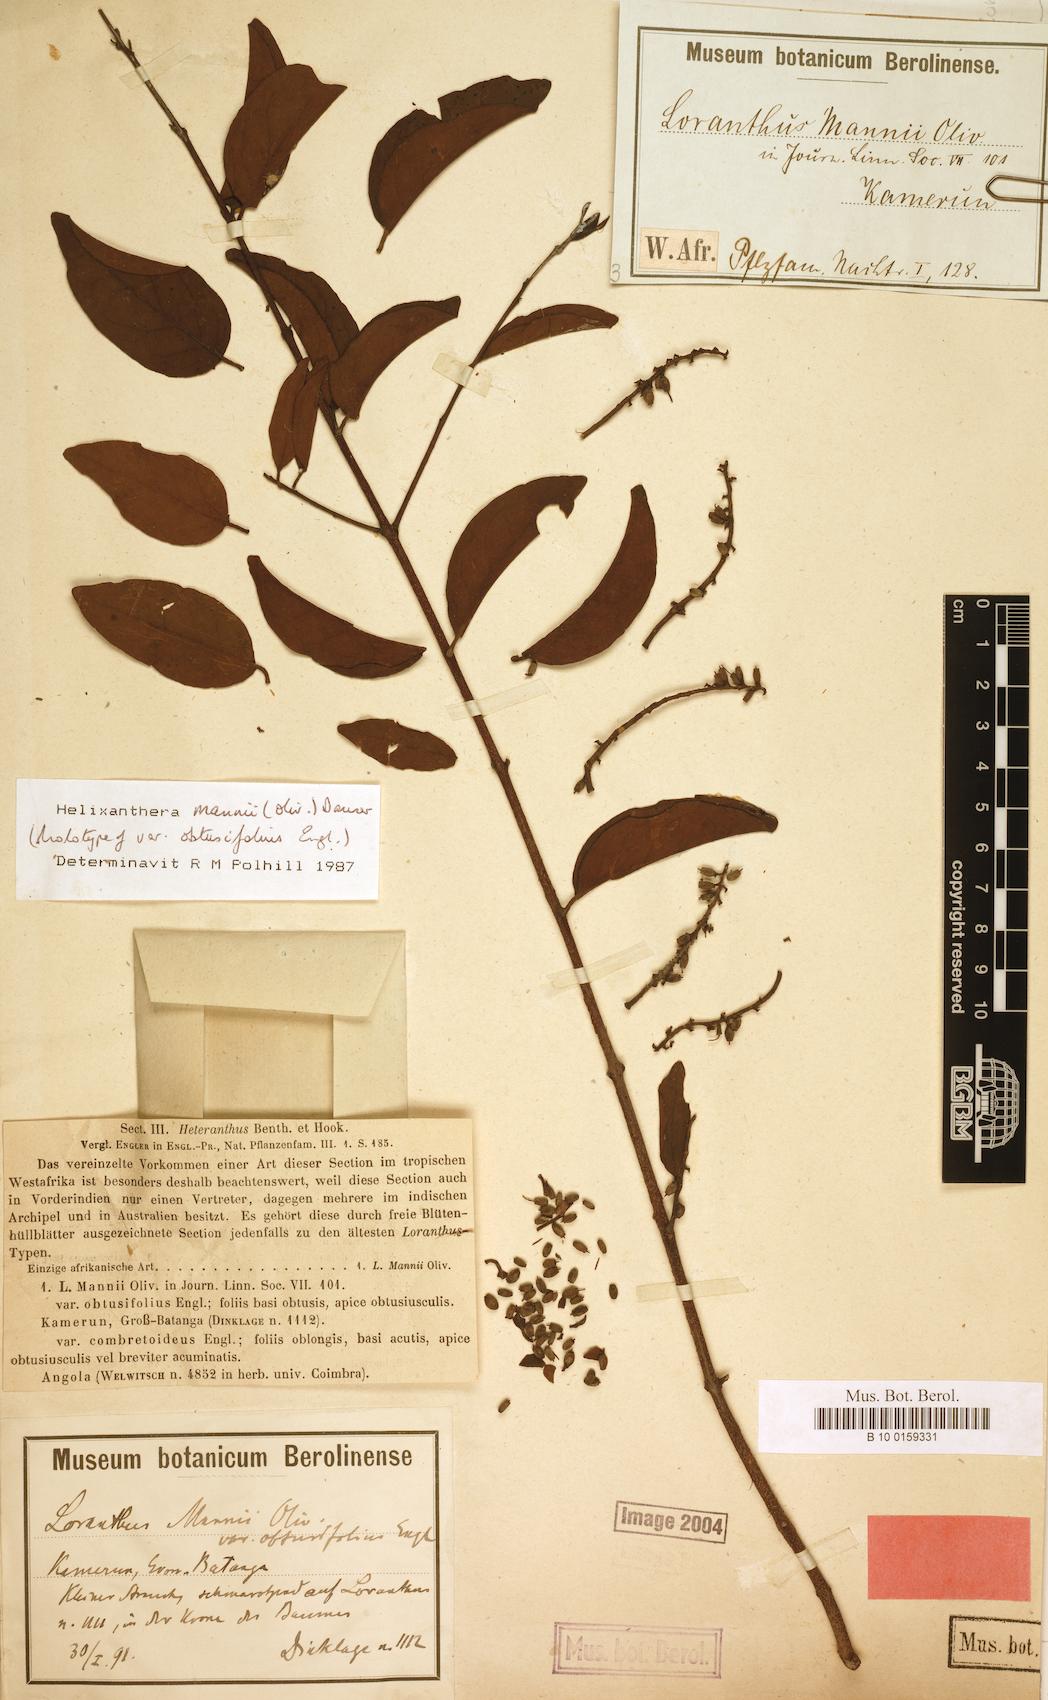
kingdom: Plantae
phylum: Tracheophyta
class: Magnoliopsida
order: Santalales
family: Loranthaceae
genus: Helixanthera
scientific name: Helixanthera mannii
